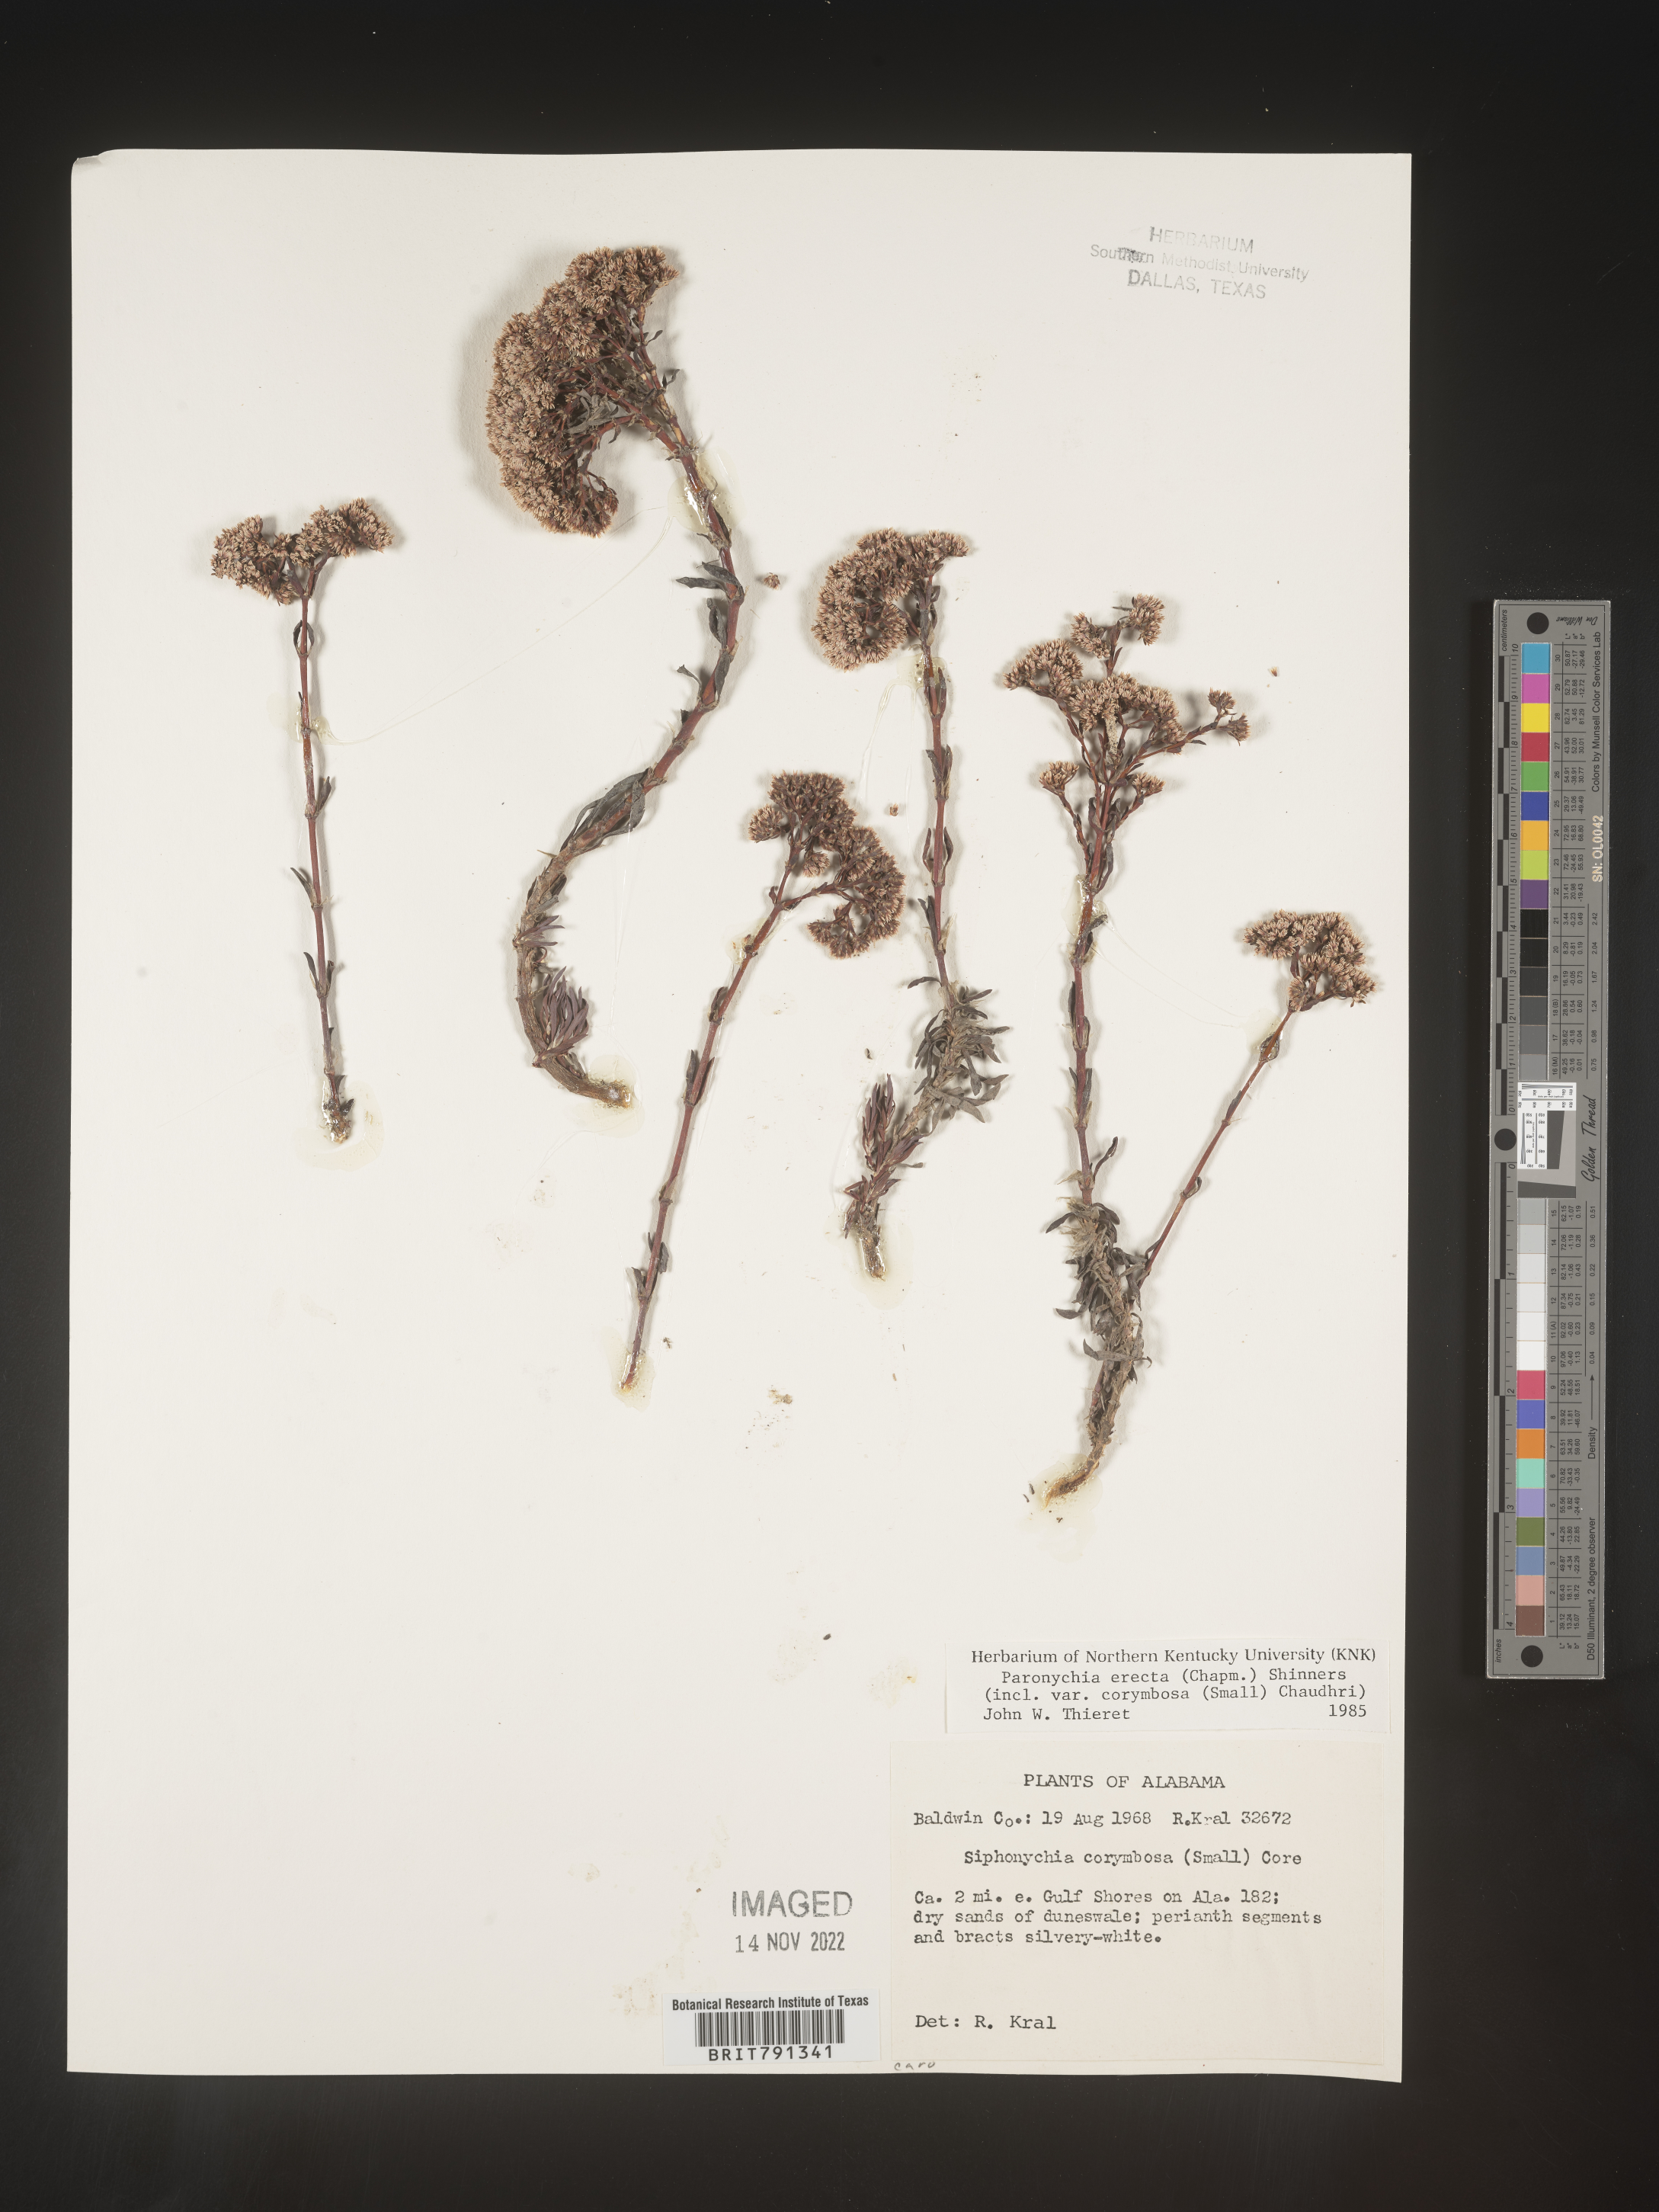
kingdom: Plantae
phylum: Tracheophyta
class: Magnoliopsida
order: Caryophyllales
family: Caryophyllaceae
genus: Paronychia
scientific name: Paronychia erecta
